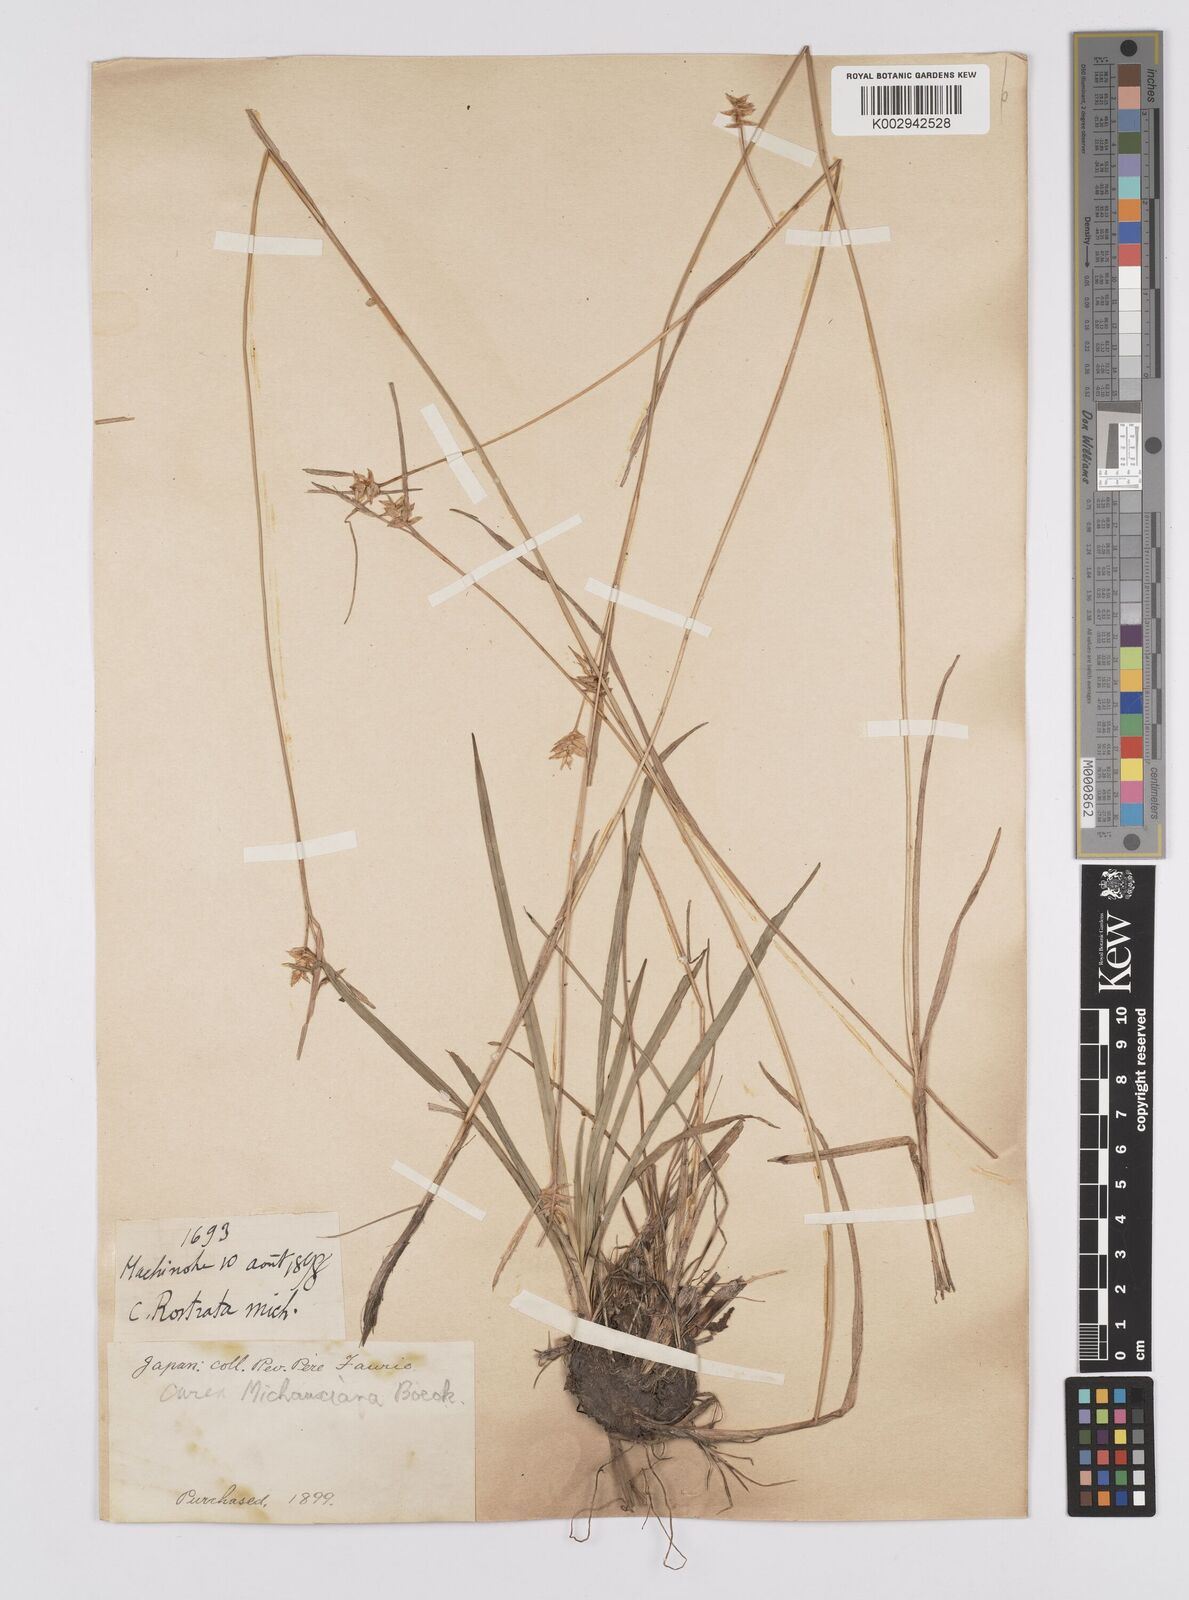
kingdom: Plantae
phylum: Tracheophyta
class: Liliopsida
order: Poales
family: Cyperaceae
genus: Carex
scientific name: Carex michauxiana
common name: Michaux's sedge
